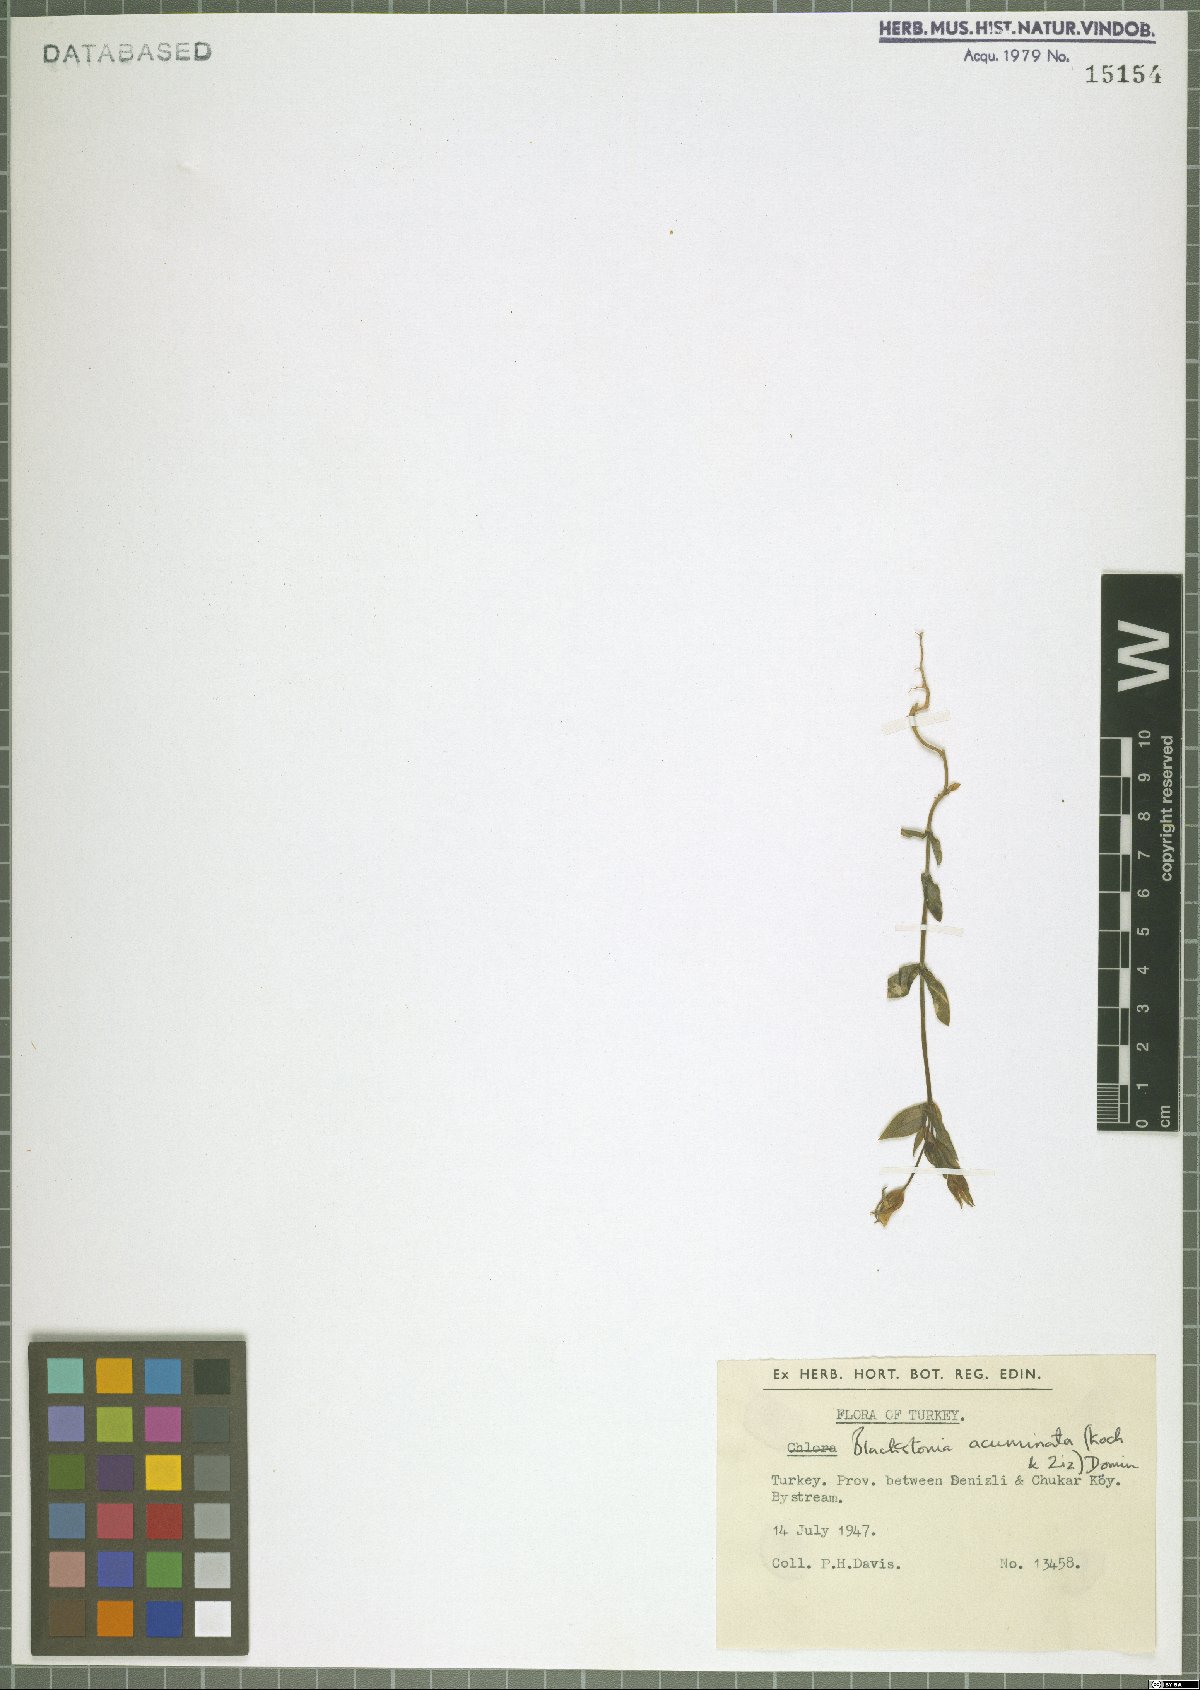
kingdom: Plantae
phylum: Tracheophyta
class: Magnoliopsida
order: Gentianales
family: Gentianaceae
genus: Blackstonia
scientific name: Blackstonia acuminata
